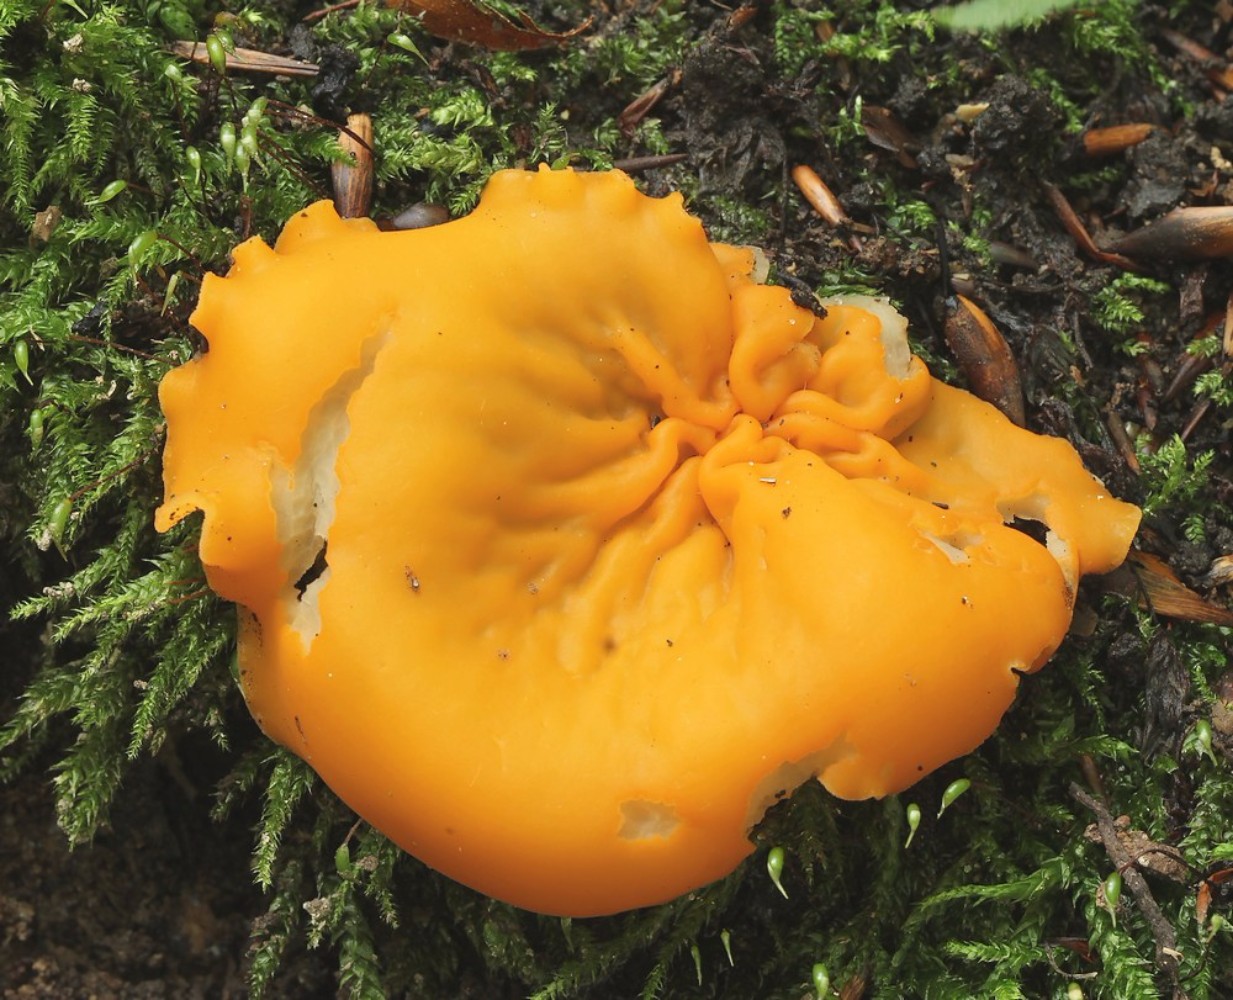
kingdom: Fungi
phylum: Ascomycota
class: Pezizomycetes
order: Pezizales
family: Pyronemataceae
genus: Aleuria
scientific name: Aleuria aurantia
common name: almindelig orangebæger
